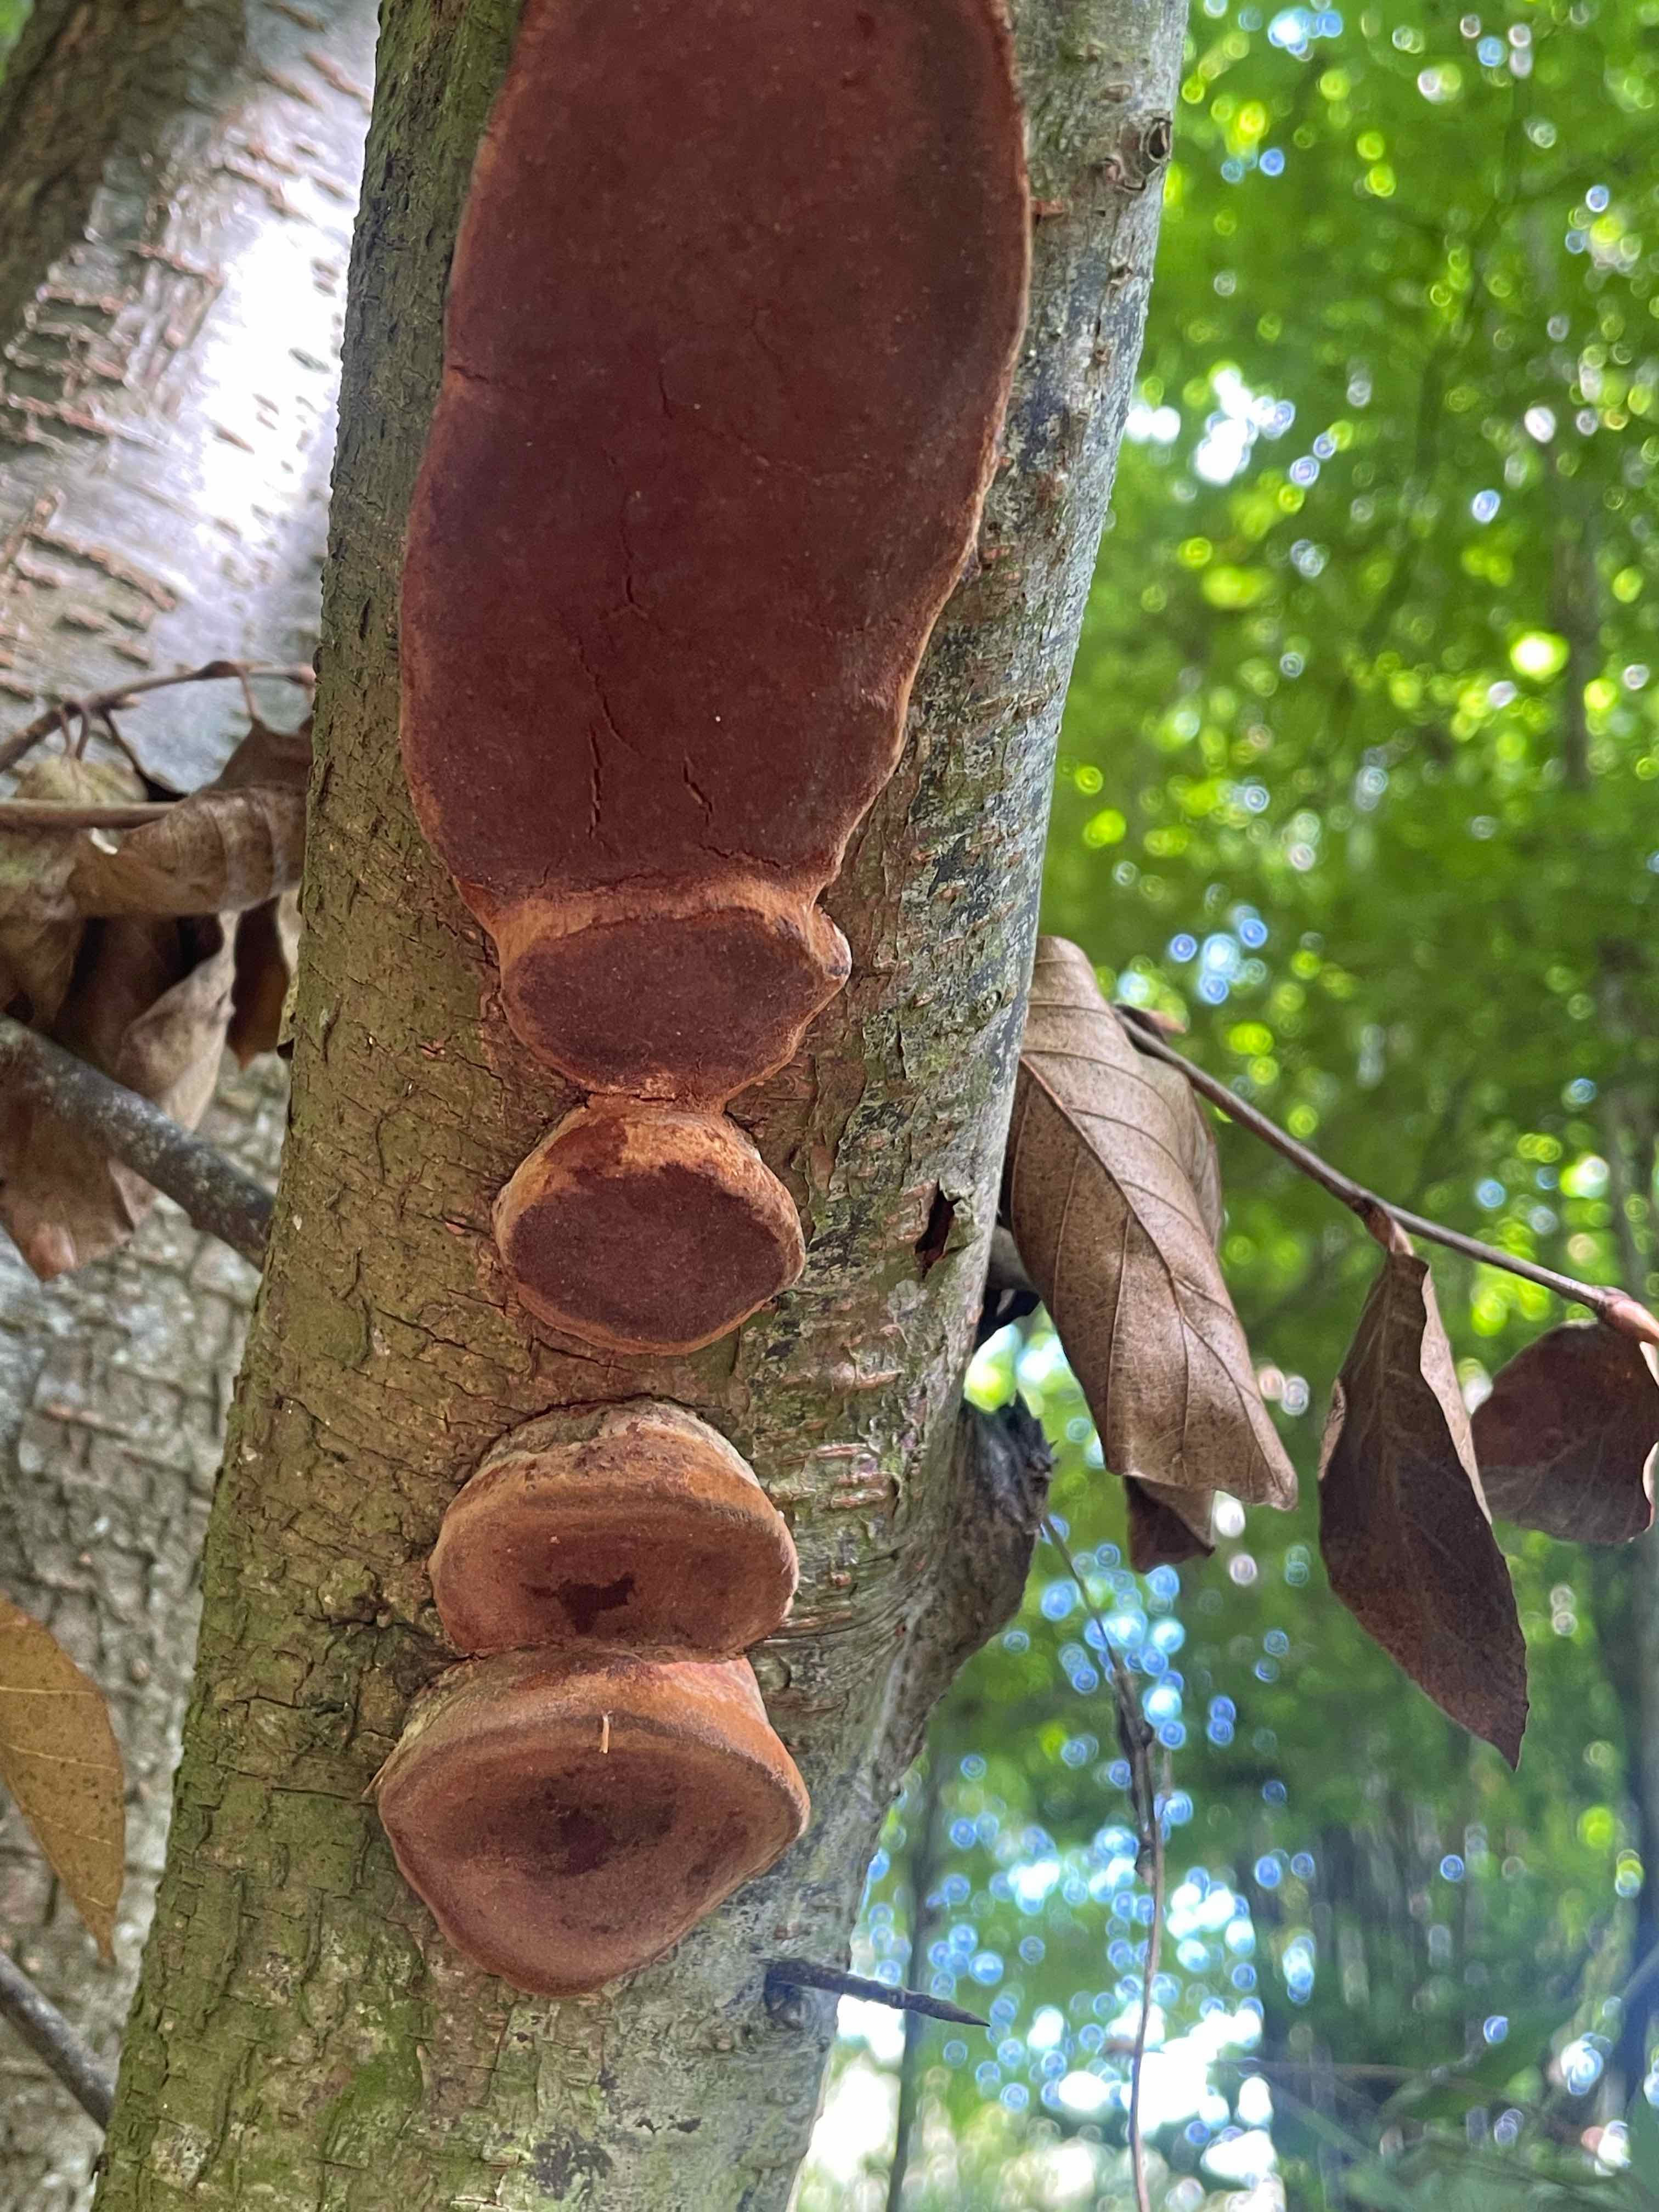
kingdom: Fungi
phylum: Basidiomycota
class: Agaricomycetes
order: Hymenochaetales
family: Hymenochaetaceae
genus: Phellinus
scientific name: Phellinus pomaceus
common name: blomme-ildporesvamp
